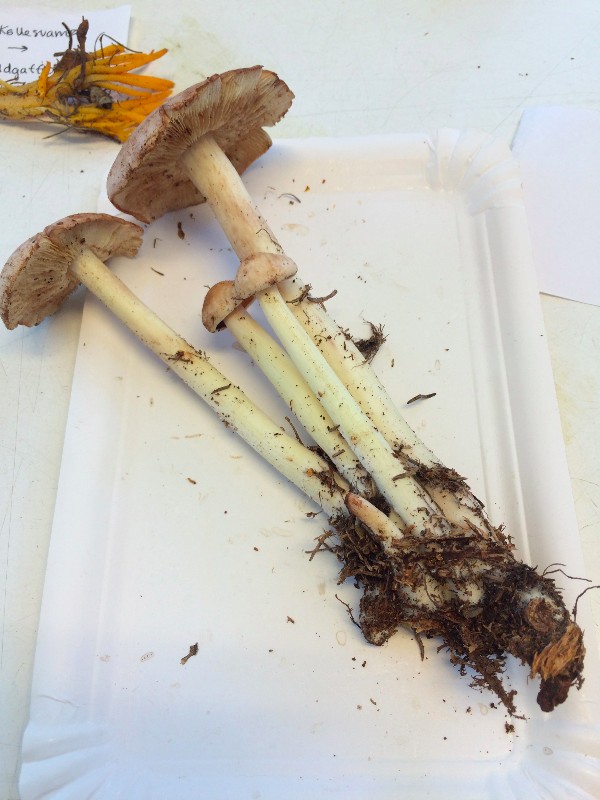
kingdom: Fungi
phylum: Basidiomycota
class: Agaricomycetes
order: Agaricales
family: Omphalotaceae
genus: Rhodocollybia
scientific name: Rhodocollybia fodiens
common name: nordisk fladhat
